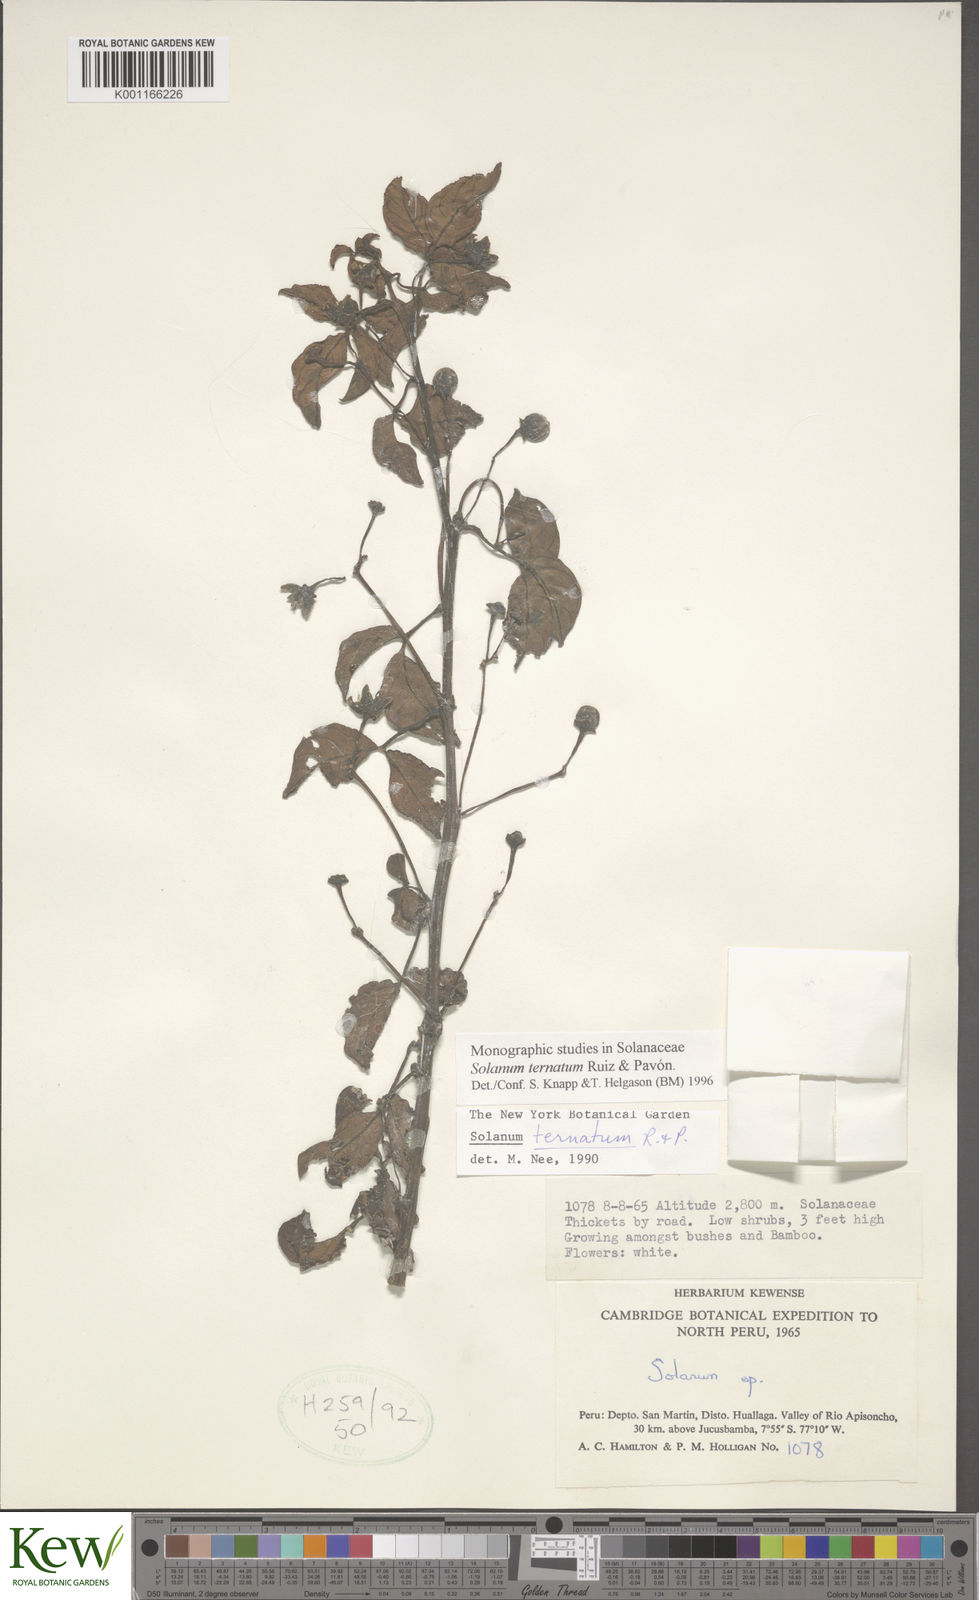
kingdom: Plantae
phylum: Tracheophyta
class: Magnoliopsida
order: Solanales
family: Solanaceae
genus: Solanum
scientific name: Solanum ternatum
